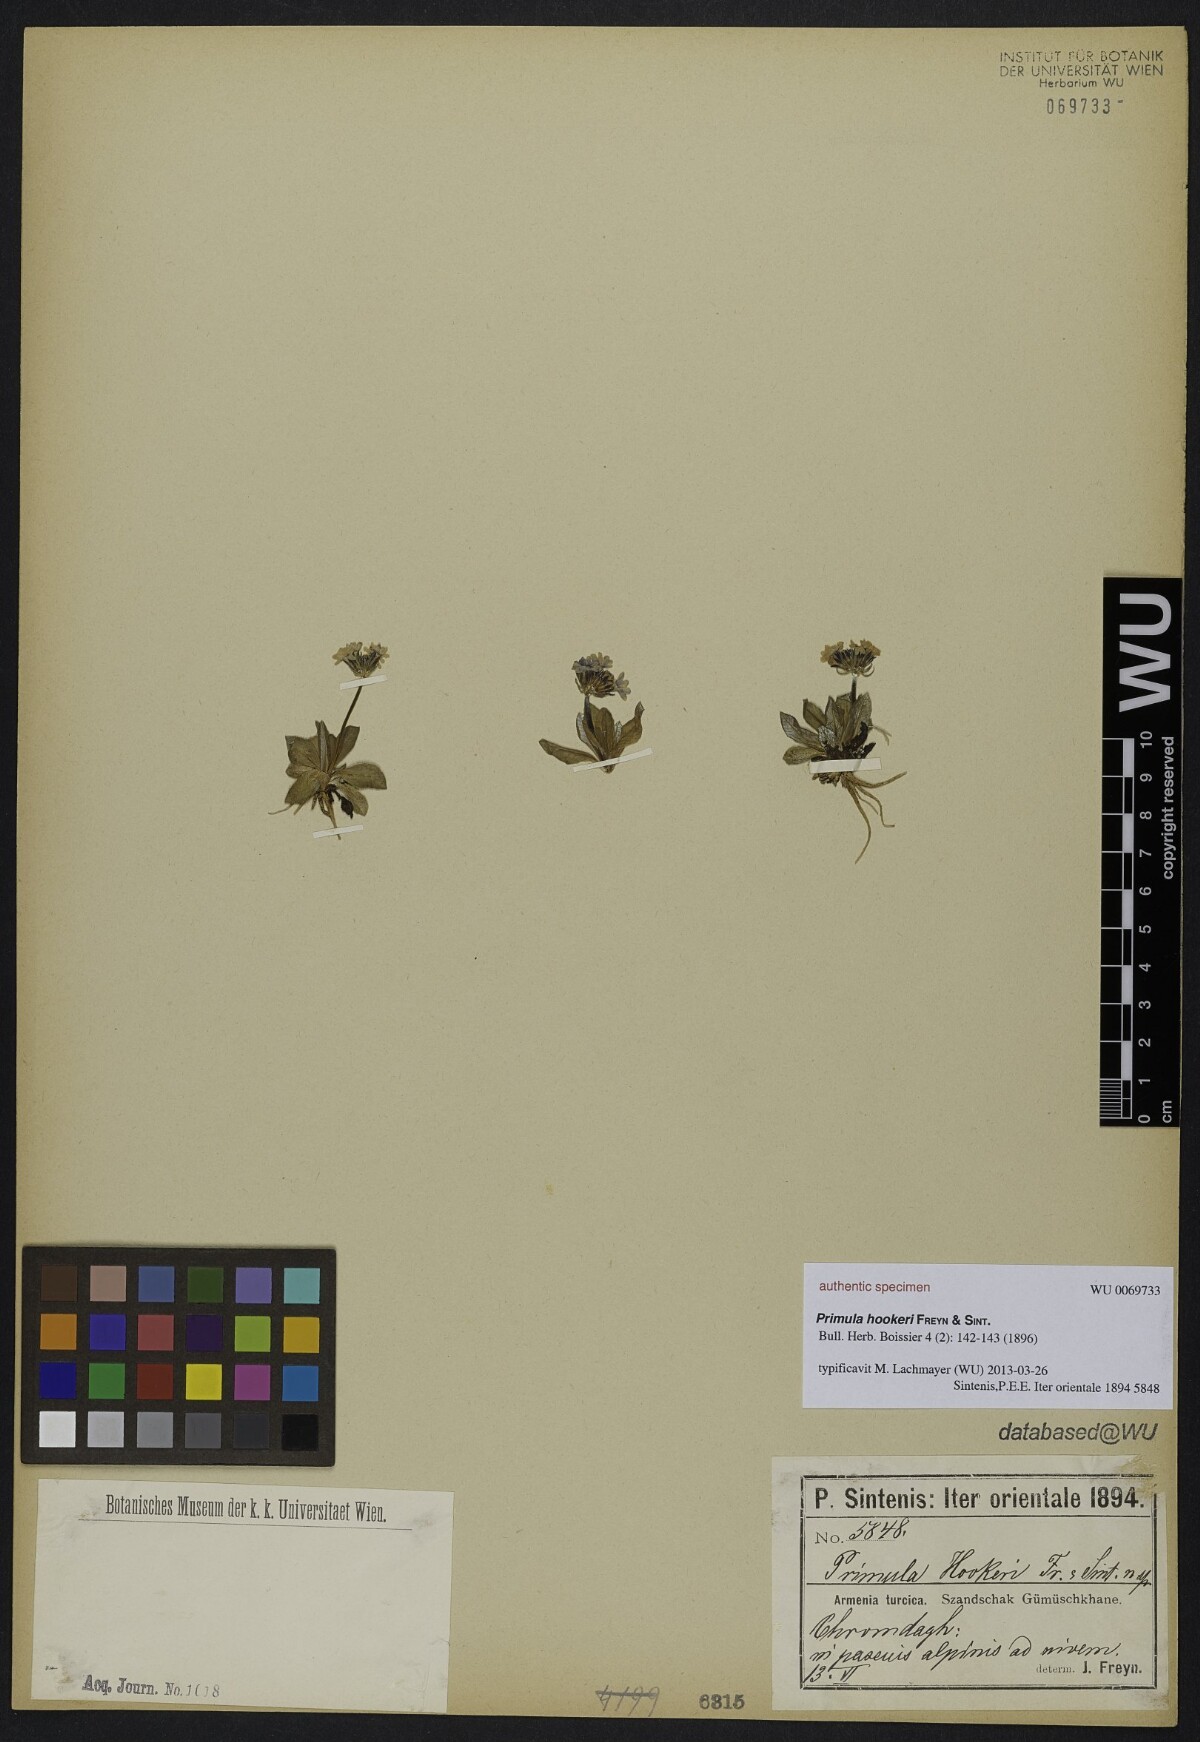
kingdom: Plantae
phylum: Tracheophyta
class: Magnoliopsida
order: Ericales
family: Primulaceae
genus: Primula
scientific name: Primula algida
